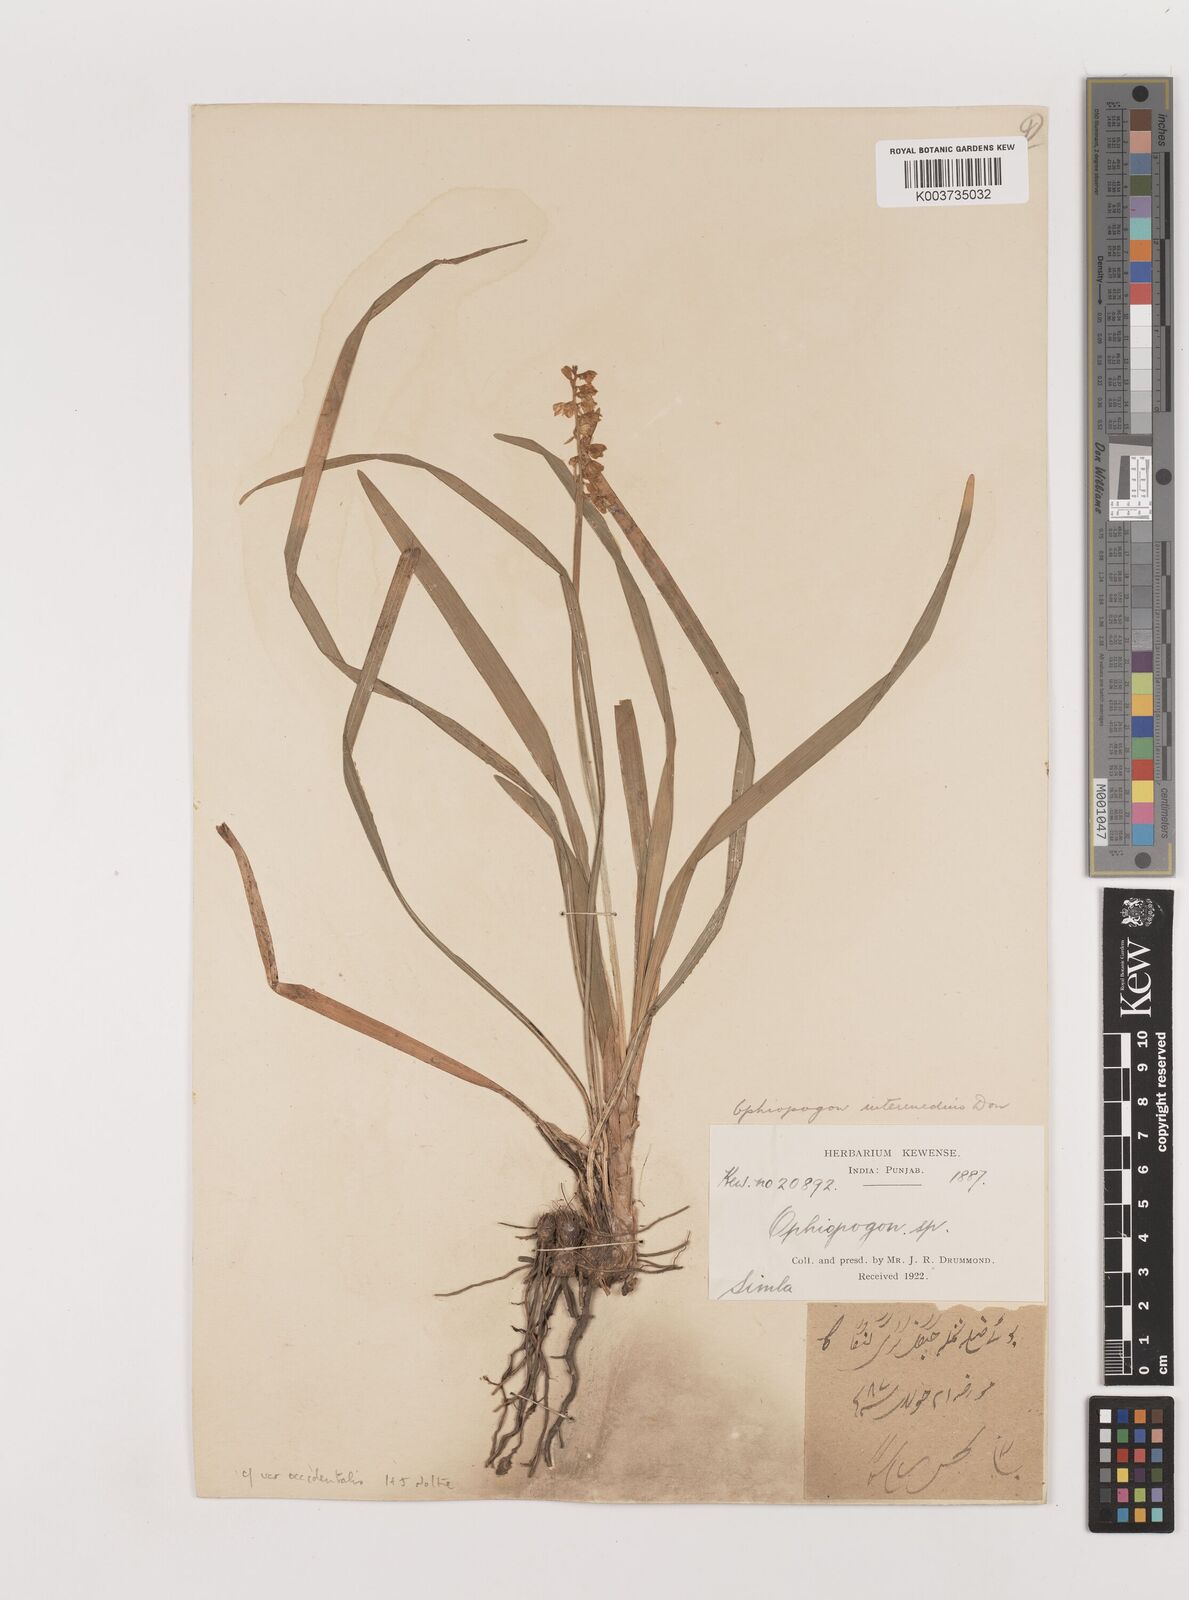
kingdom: Plantae
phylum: Tracheophyta
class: Liliopsida
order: Asparagales
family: Asparagaceae
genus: Ophiopogon
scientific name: Ophiopogon intermedius
